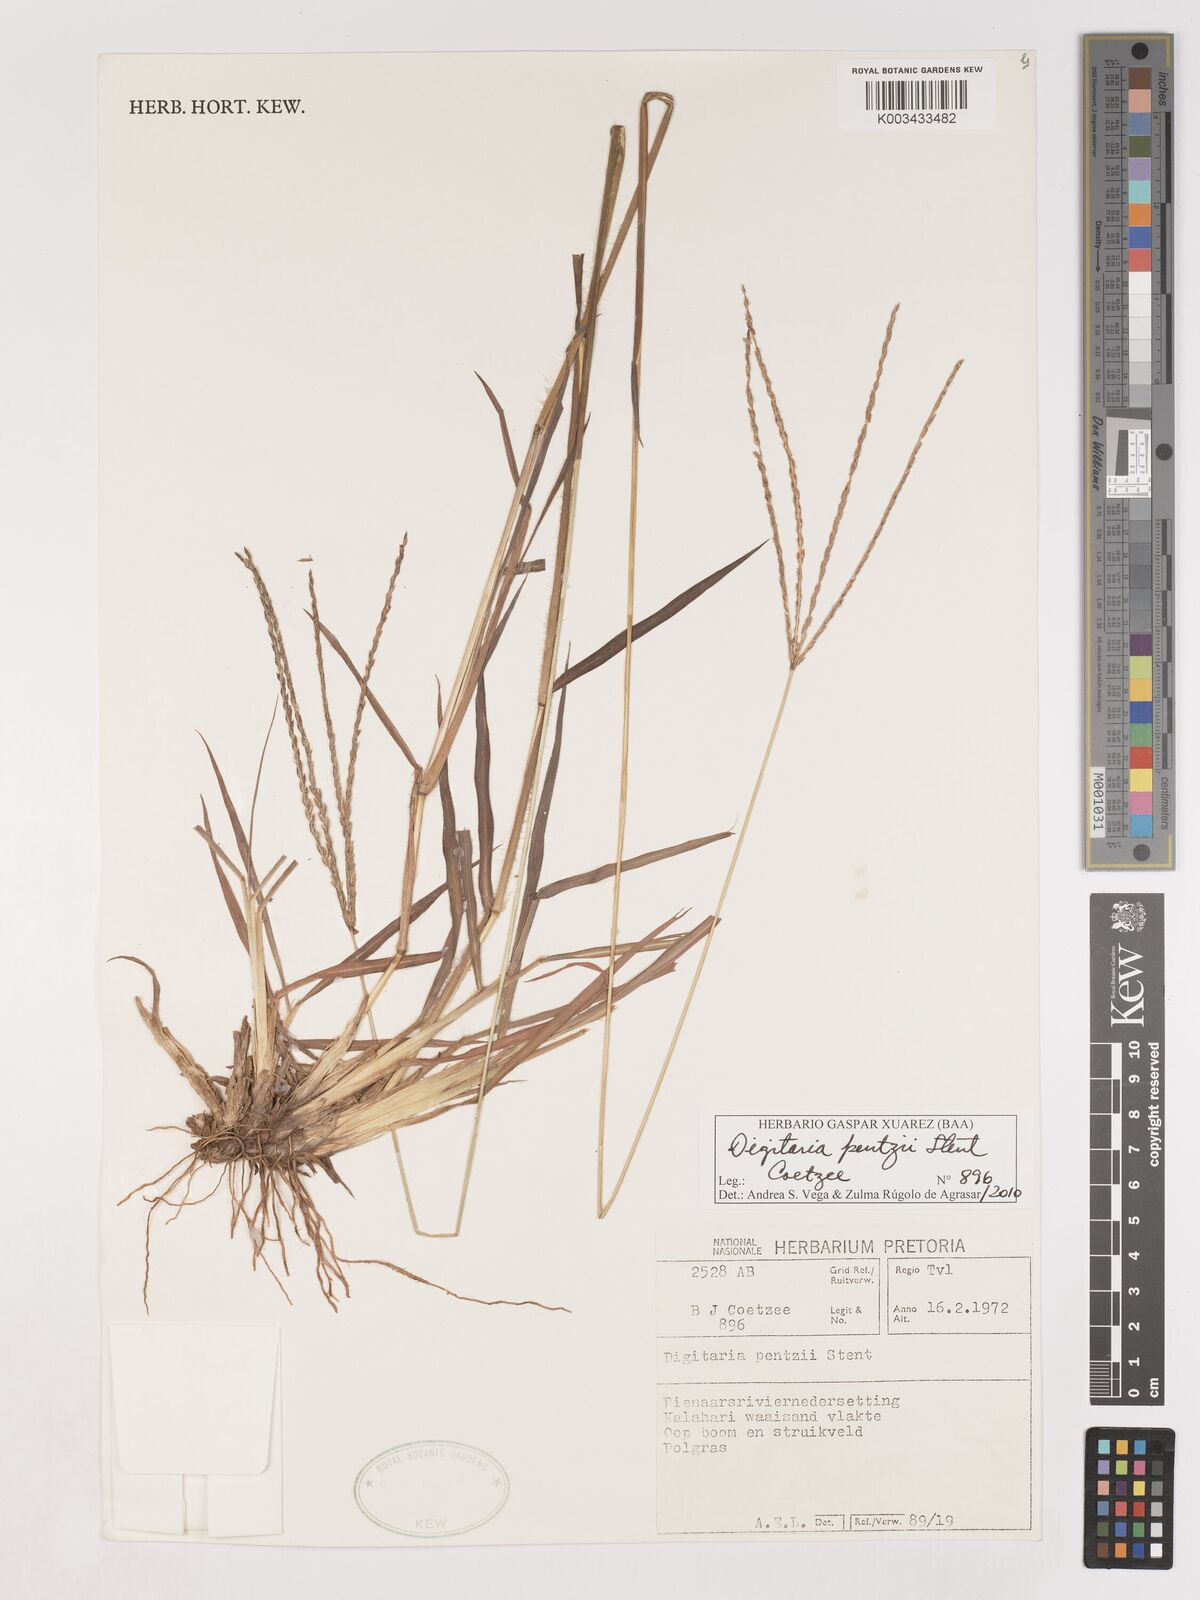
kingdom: Plantae
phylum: Tracheophyta
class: Liliopsida
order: Poales
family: Poaceae
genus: Digitaria
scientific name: Digitaria eriantha
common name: Digitgrass
